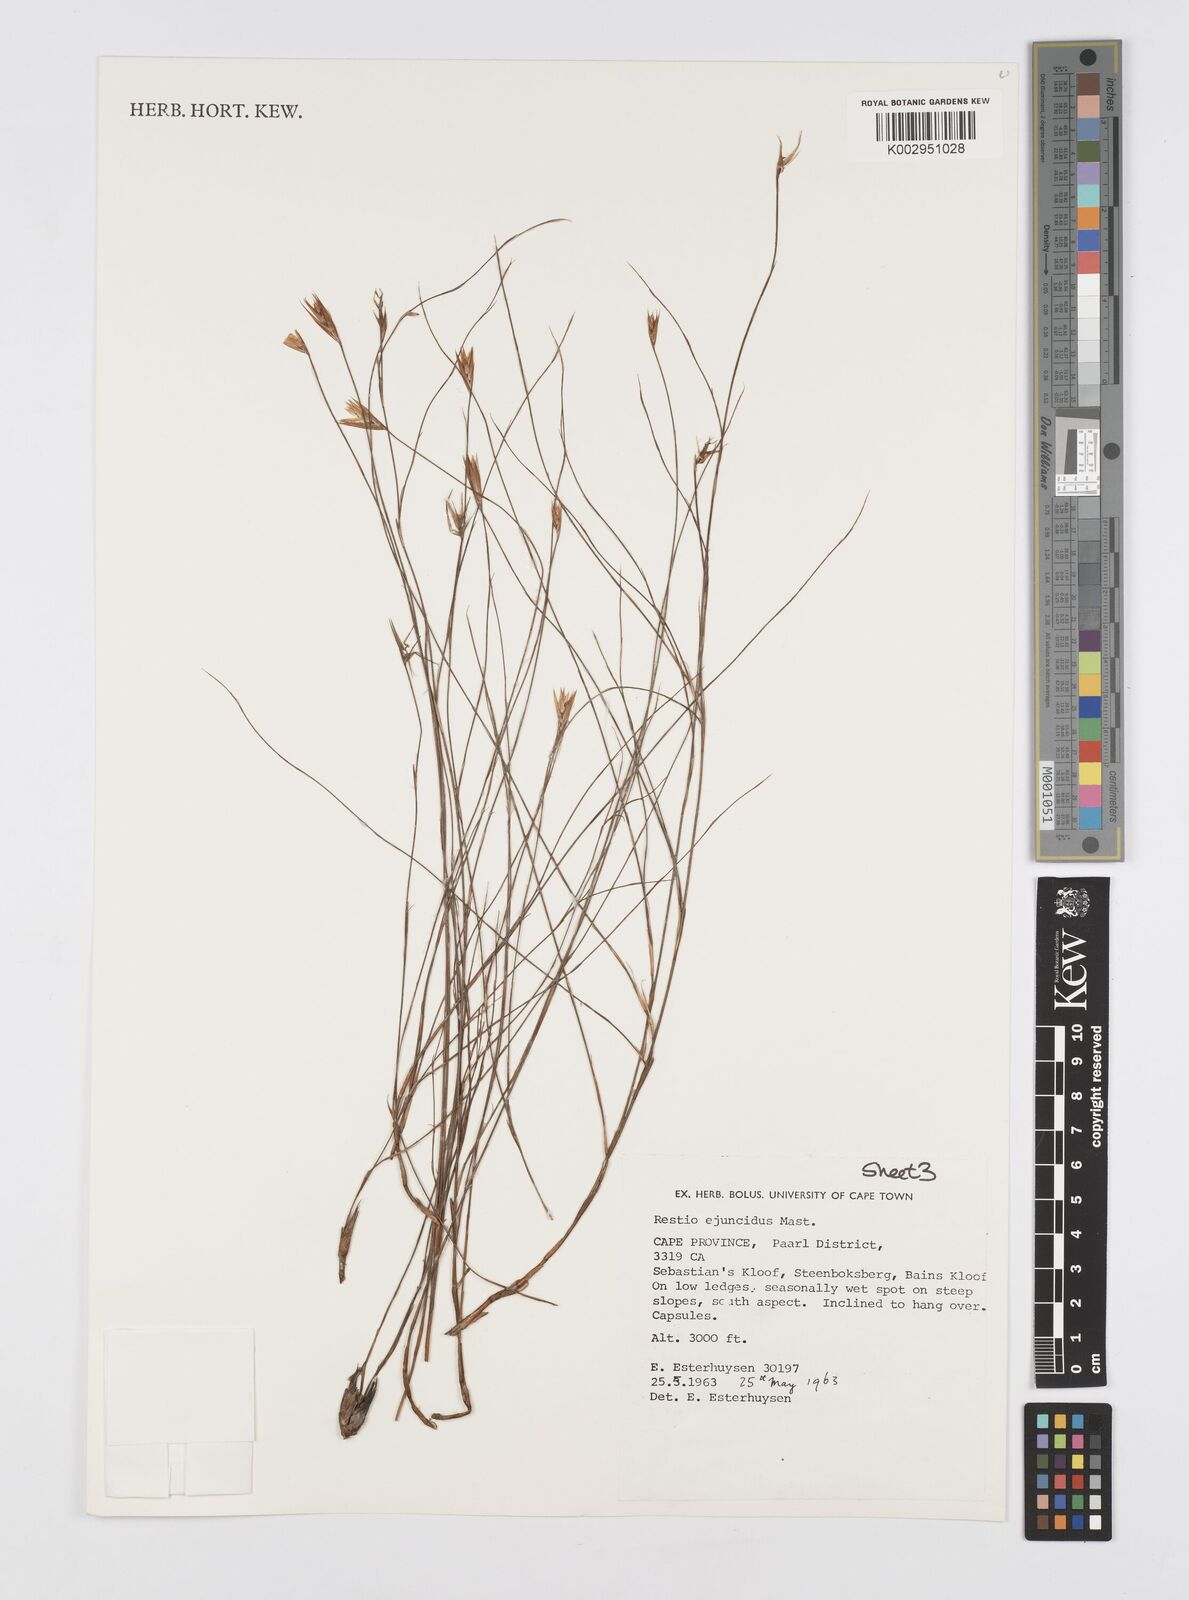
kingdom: Plantae
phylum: Tracheophyta
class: Liliopsida
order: Poales
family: Restionaceae
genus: Restio
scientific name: Restio ejuncidus
